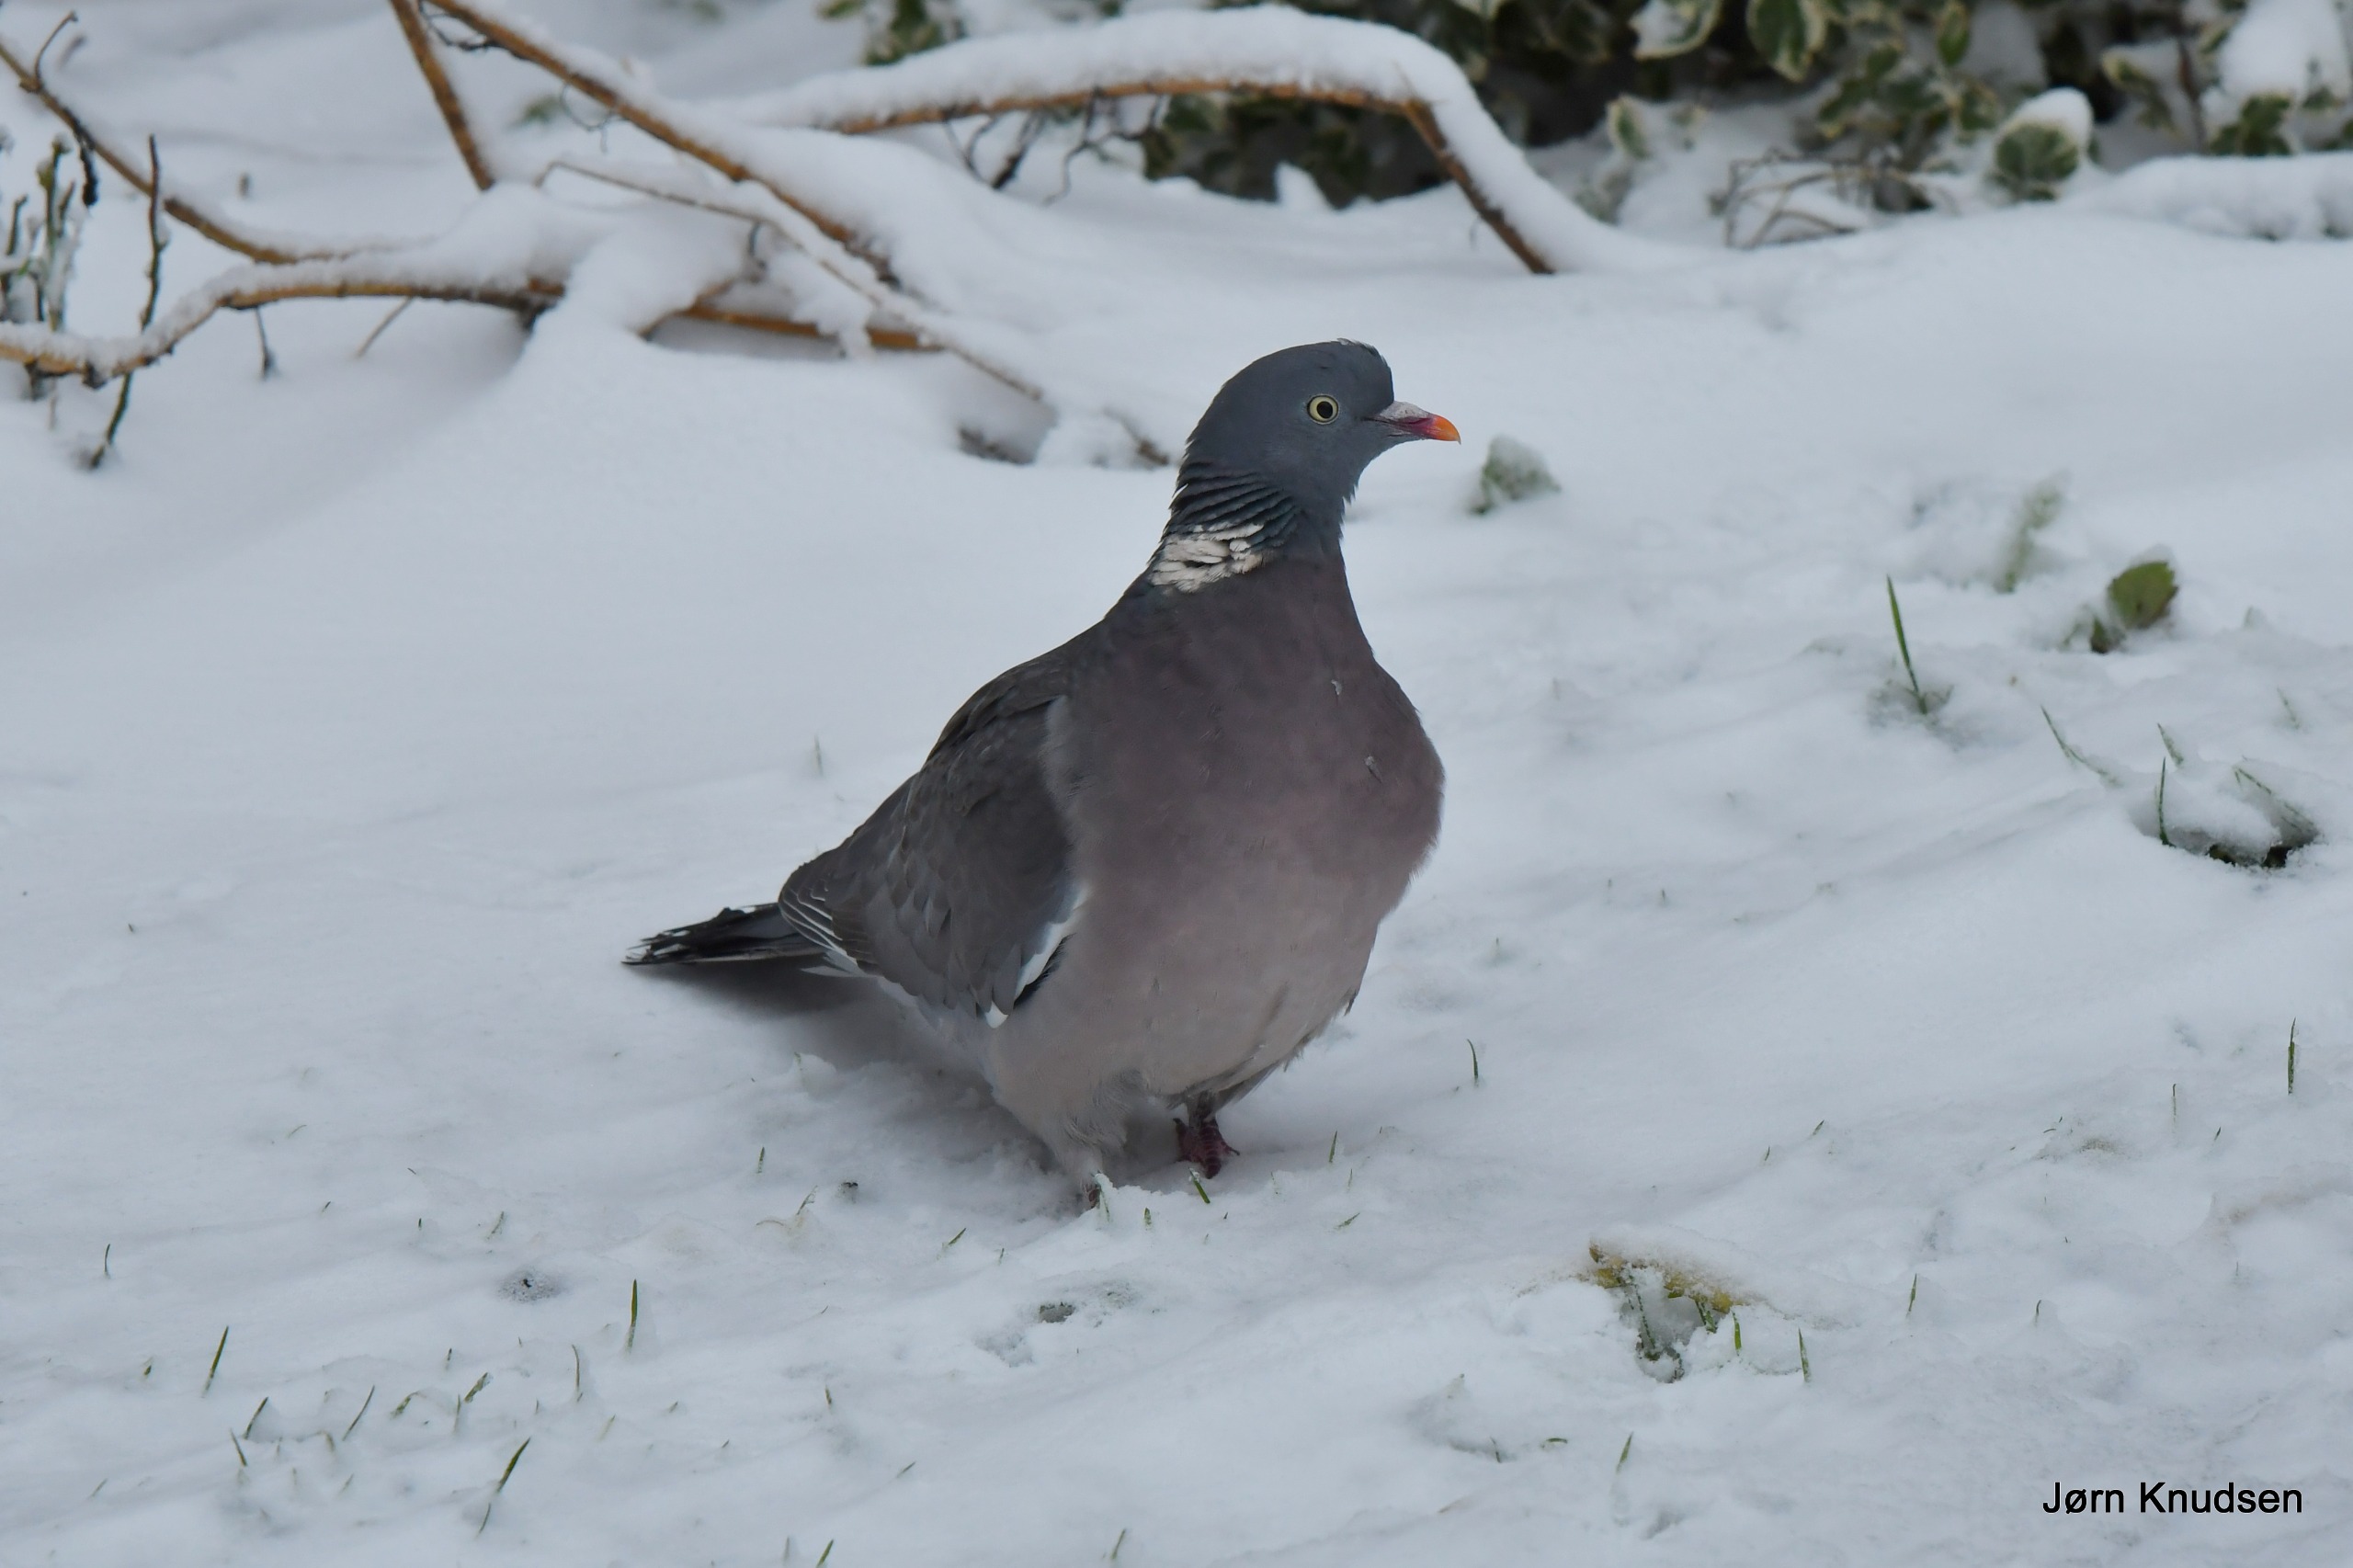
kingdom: Animalia
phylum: Chordata
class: Aves
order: Columbiformes
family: Columbidae
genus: Columba
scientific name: Columba palumbus
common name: Ringdue
